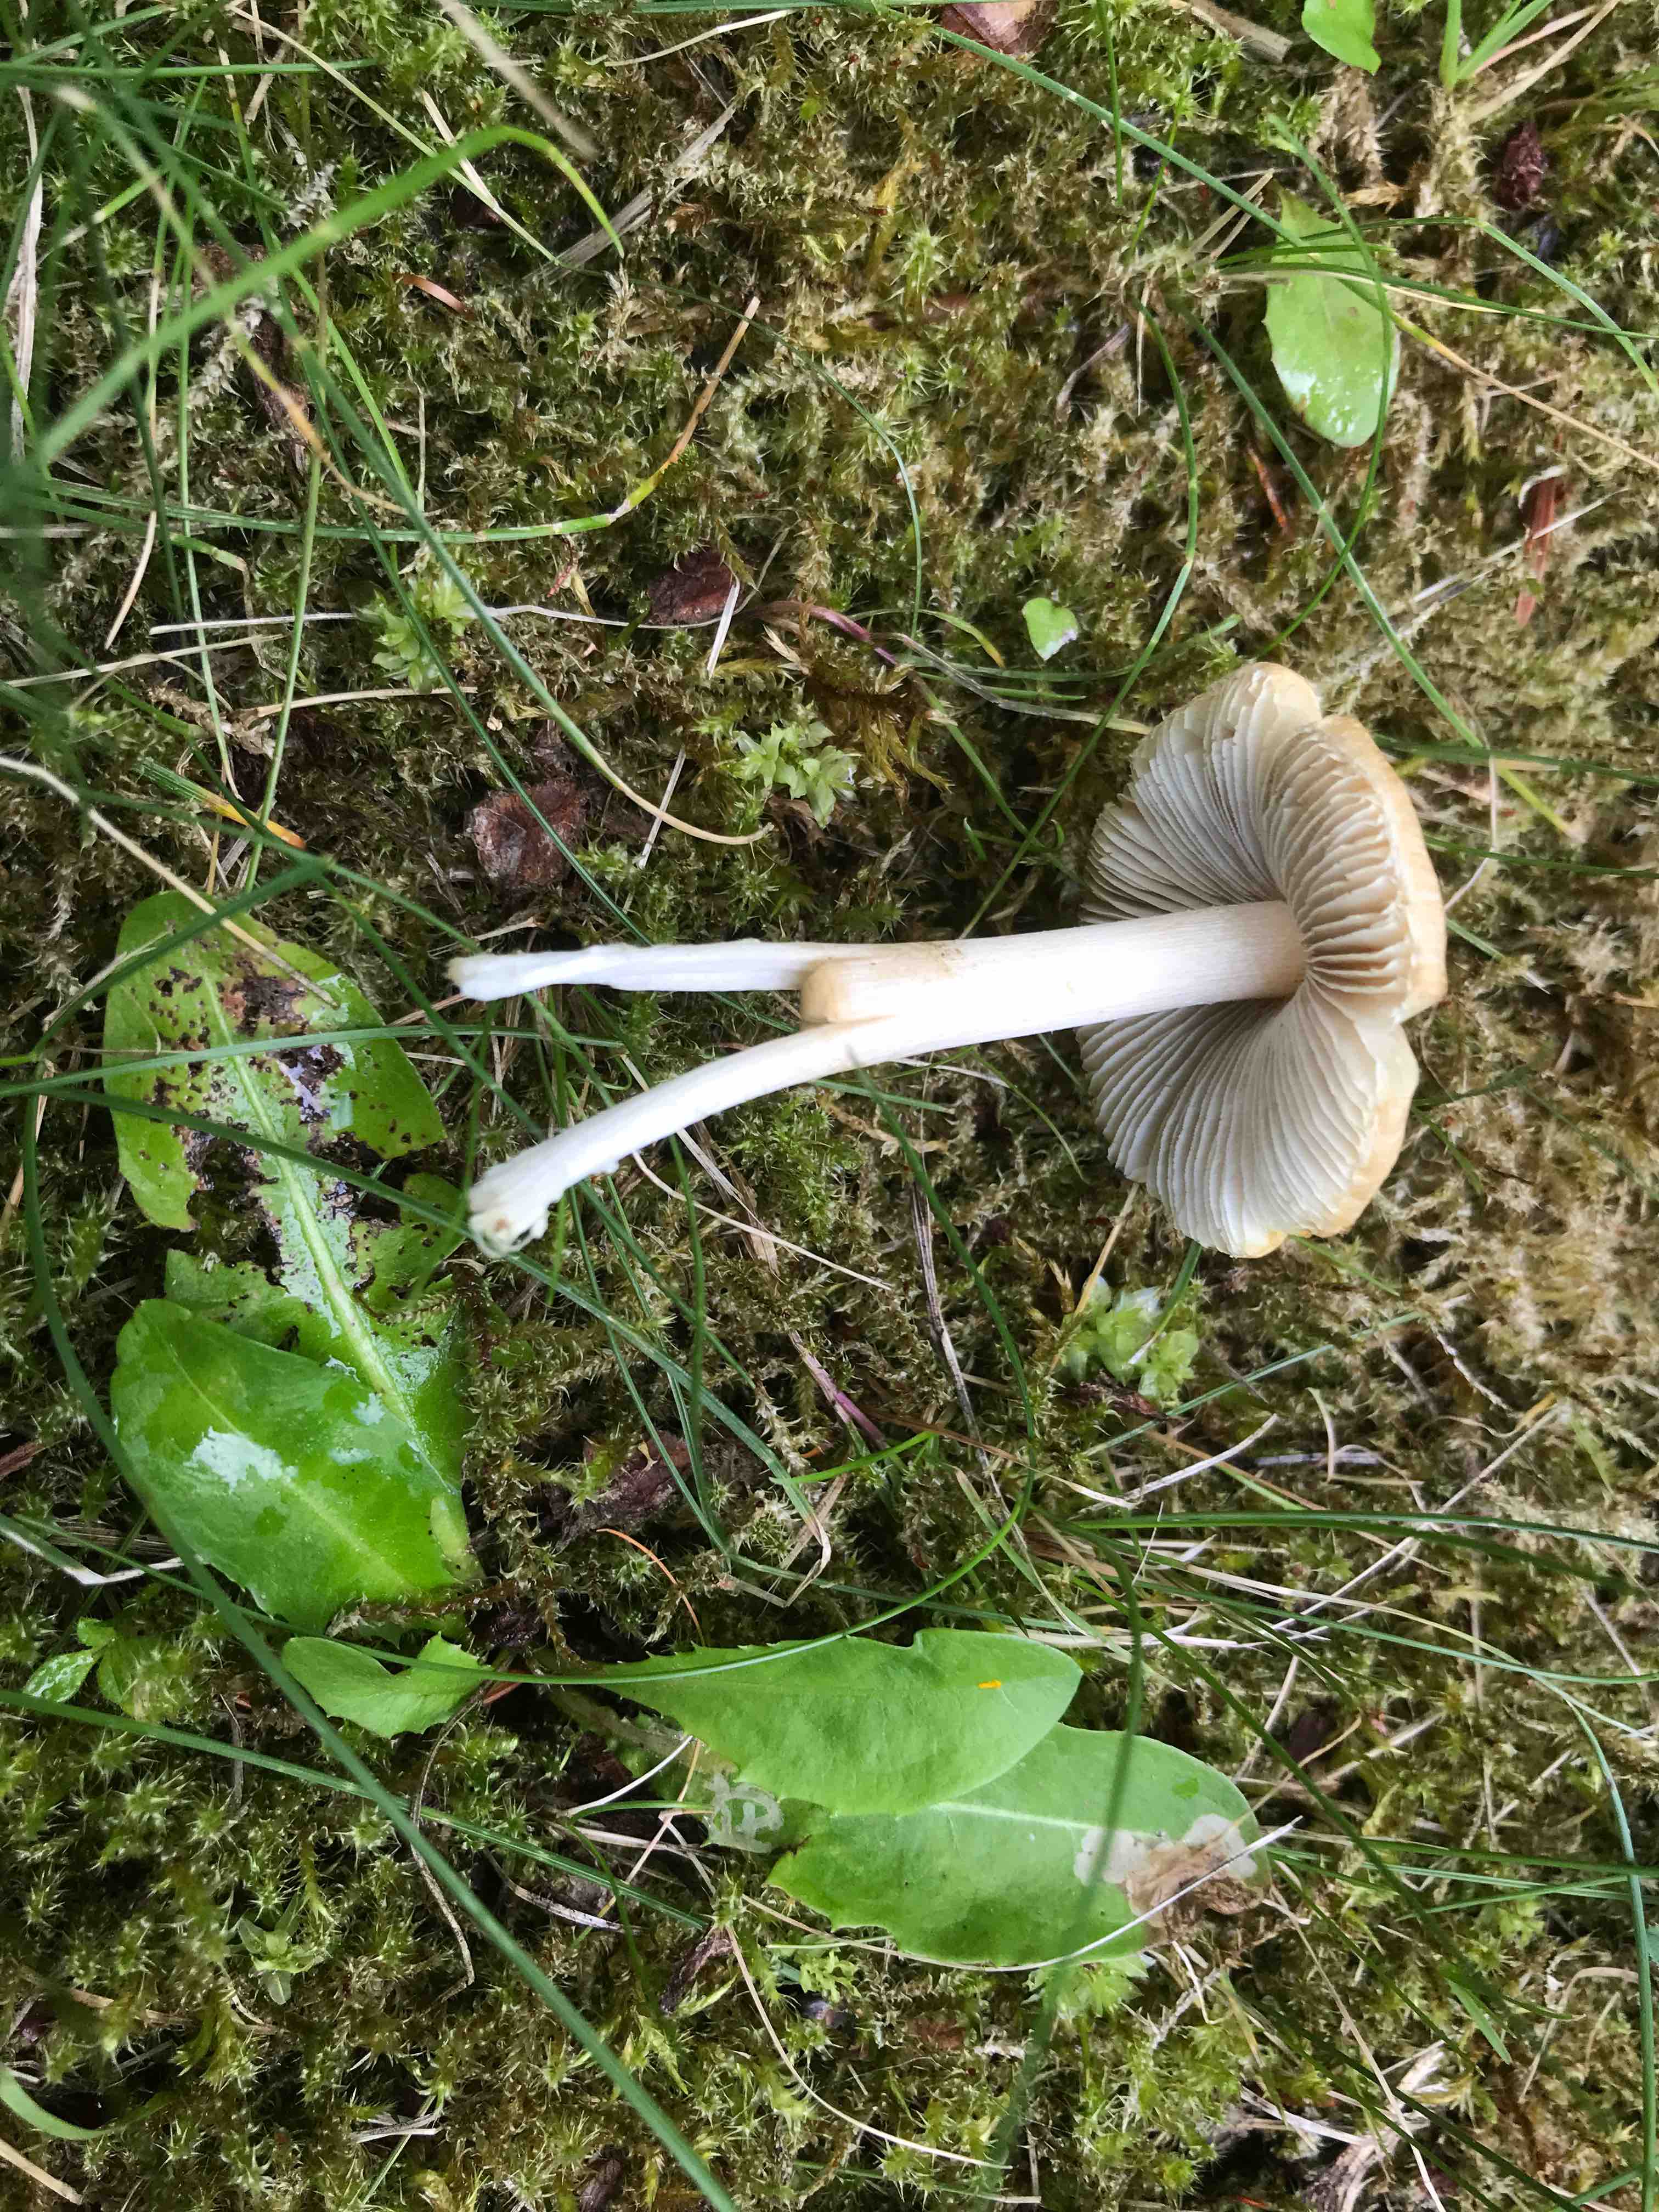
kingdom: Fungi
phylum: Basidiomycota
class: Agaricomycetes
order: Agaricales
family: Inocybaceae
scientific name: Inocybaceae
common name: trævlhatfamilien
